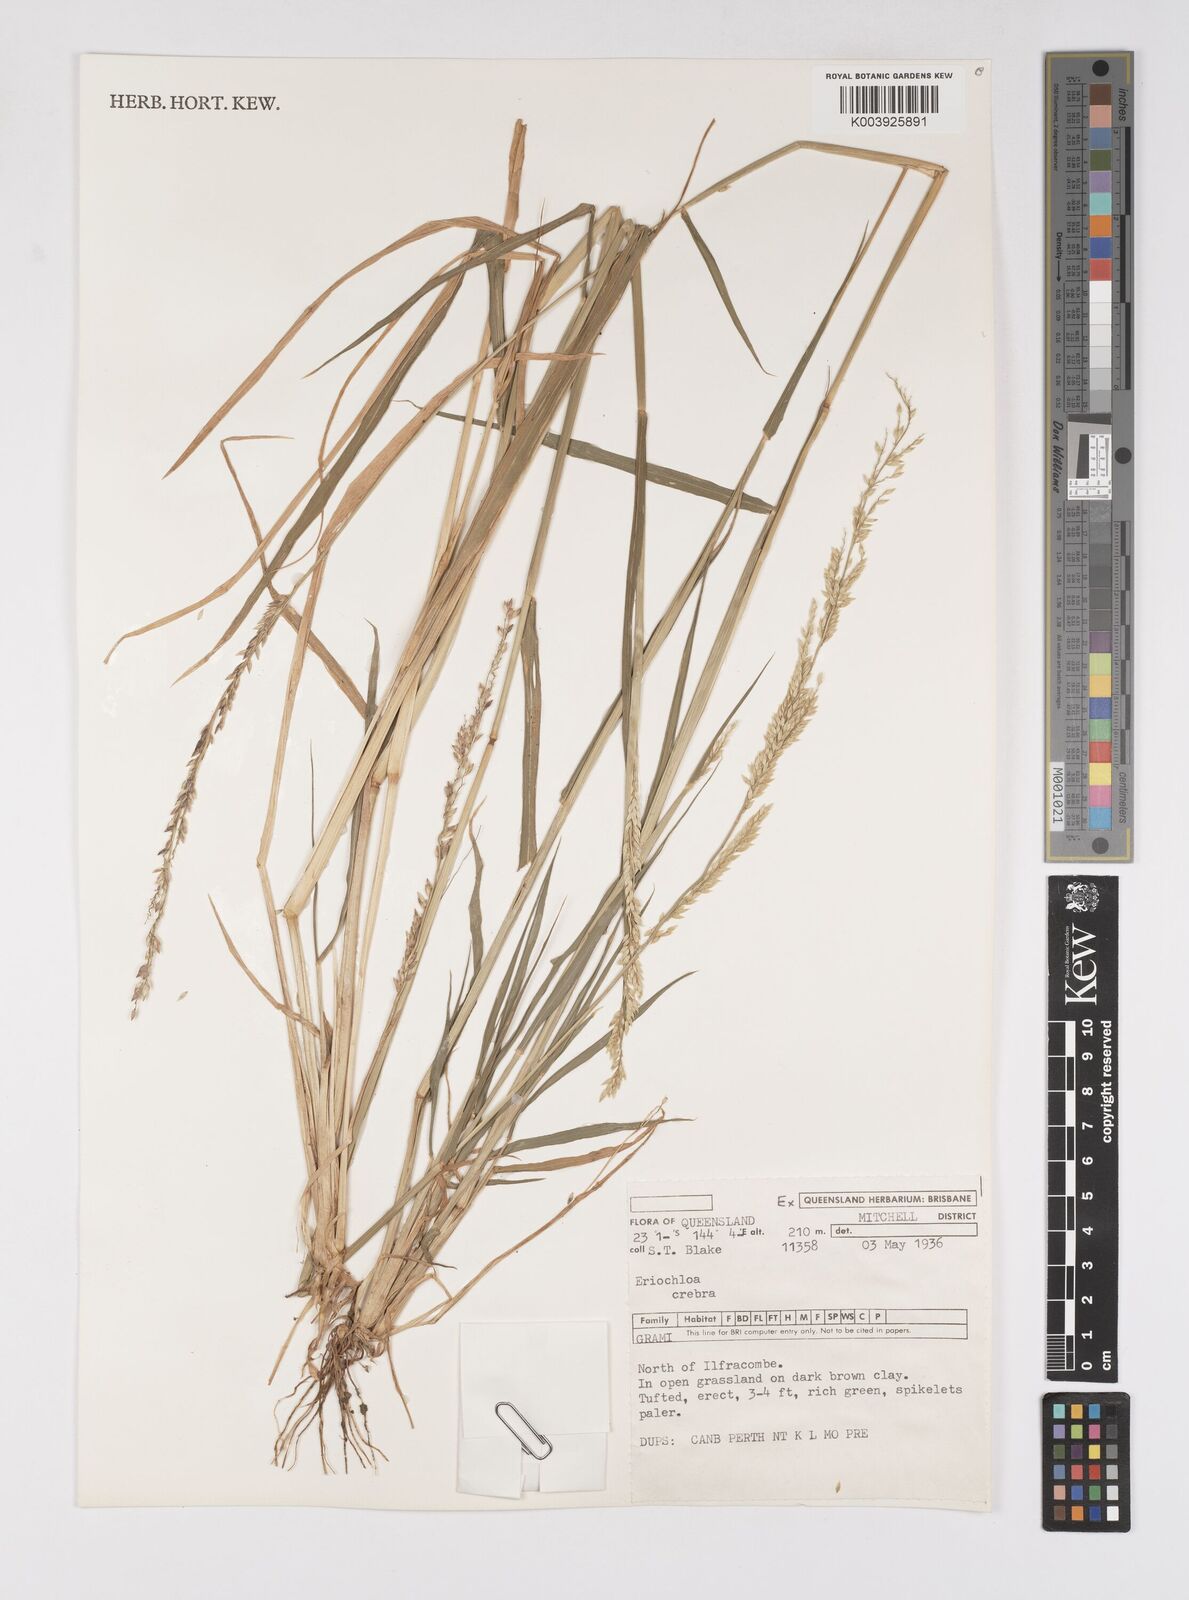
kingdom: Plantae
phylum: Tracheophyta
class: Liliopsida
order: Poales
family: Poaceae
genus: Eriochloa
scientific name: Eriochloa crebra
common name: Cup grass
